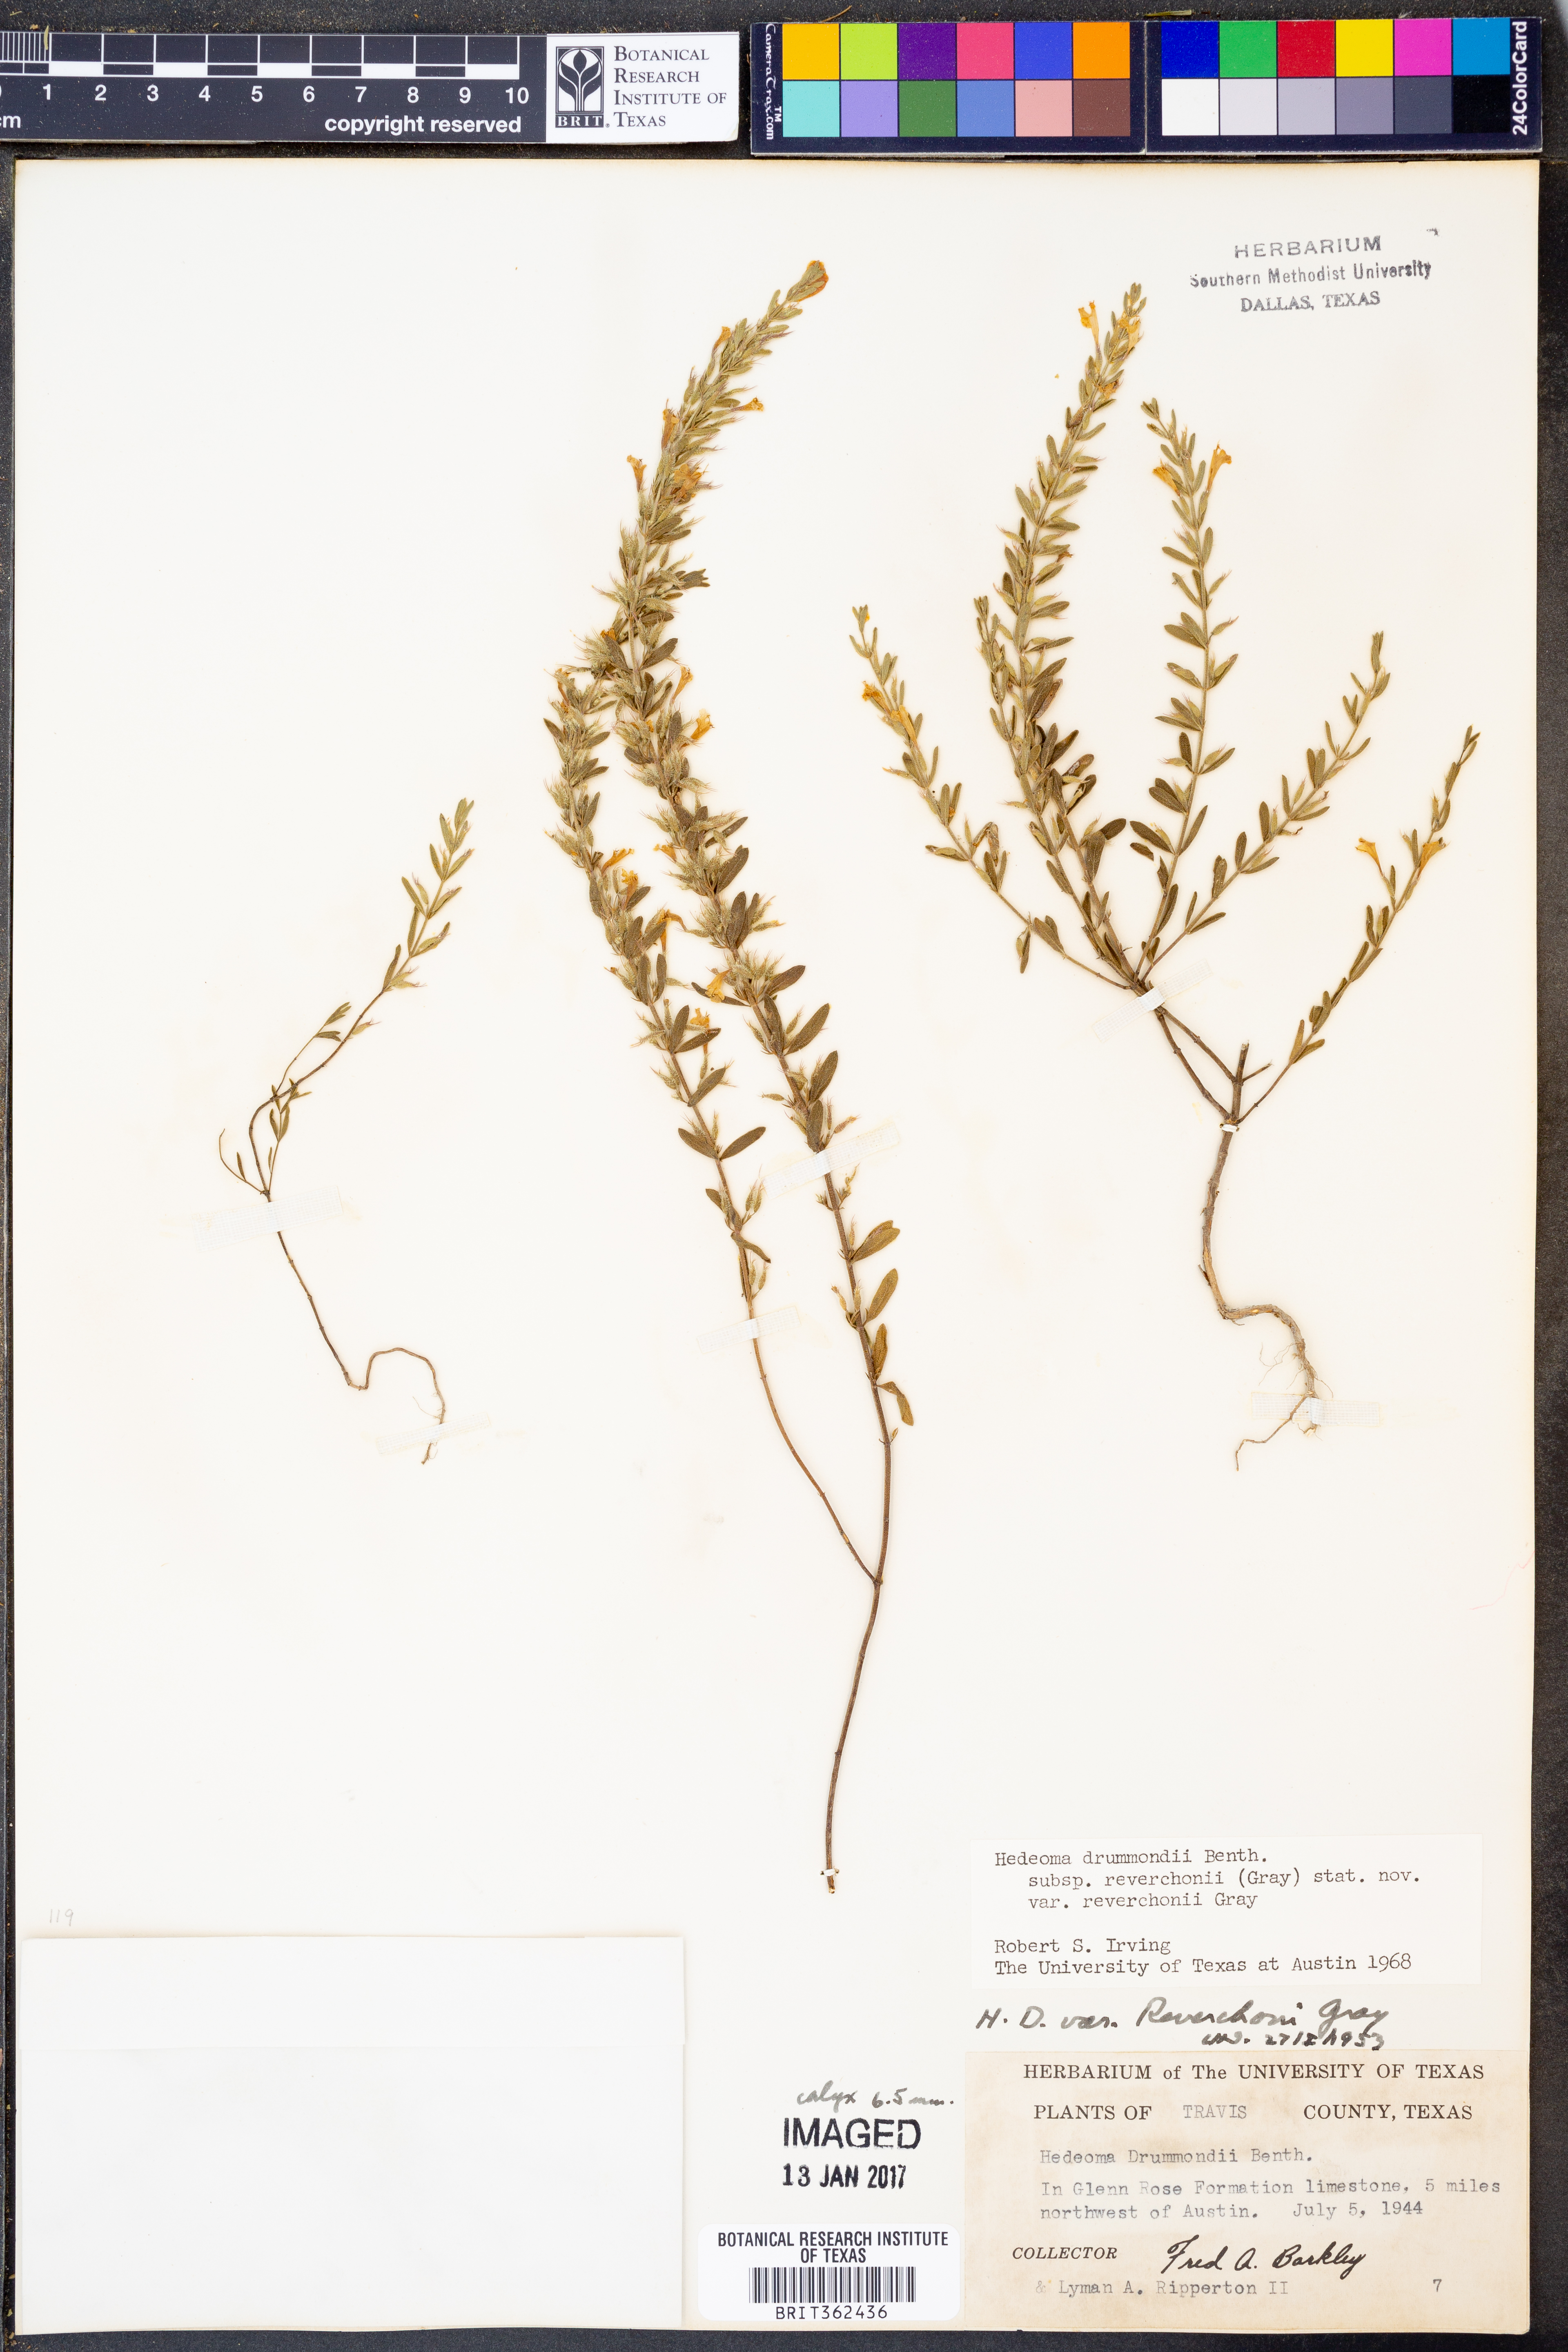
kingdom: Plantae
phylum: Tracheophyta
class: Magnoliopsida
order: Lamiales
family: Lamiaceae
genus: Hedeoma
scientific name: Hedeoma reverchonii
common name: Reverchon's false penny-royal
